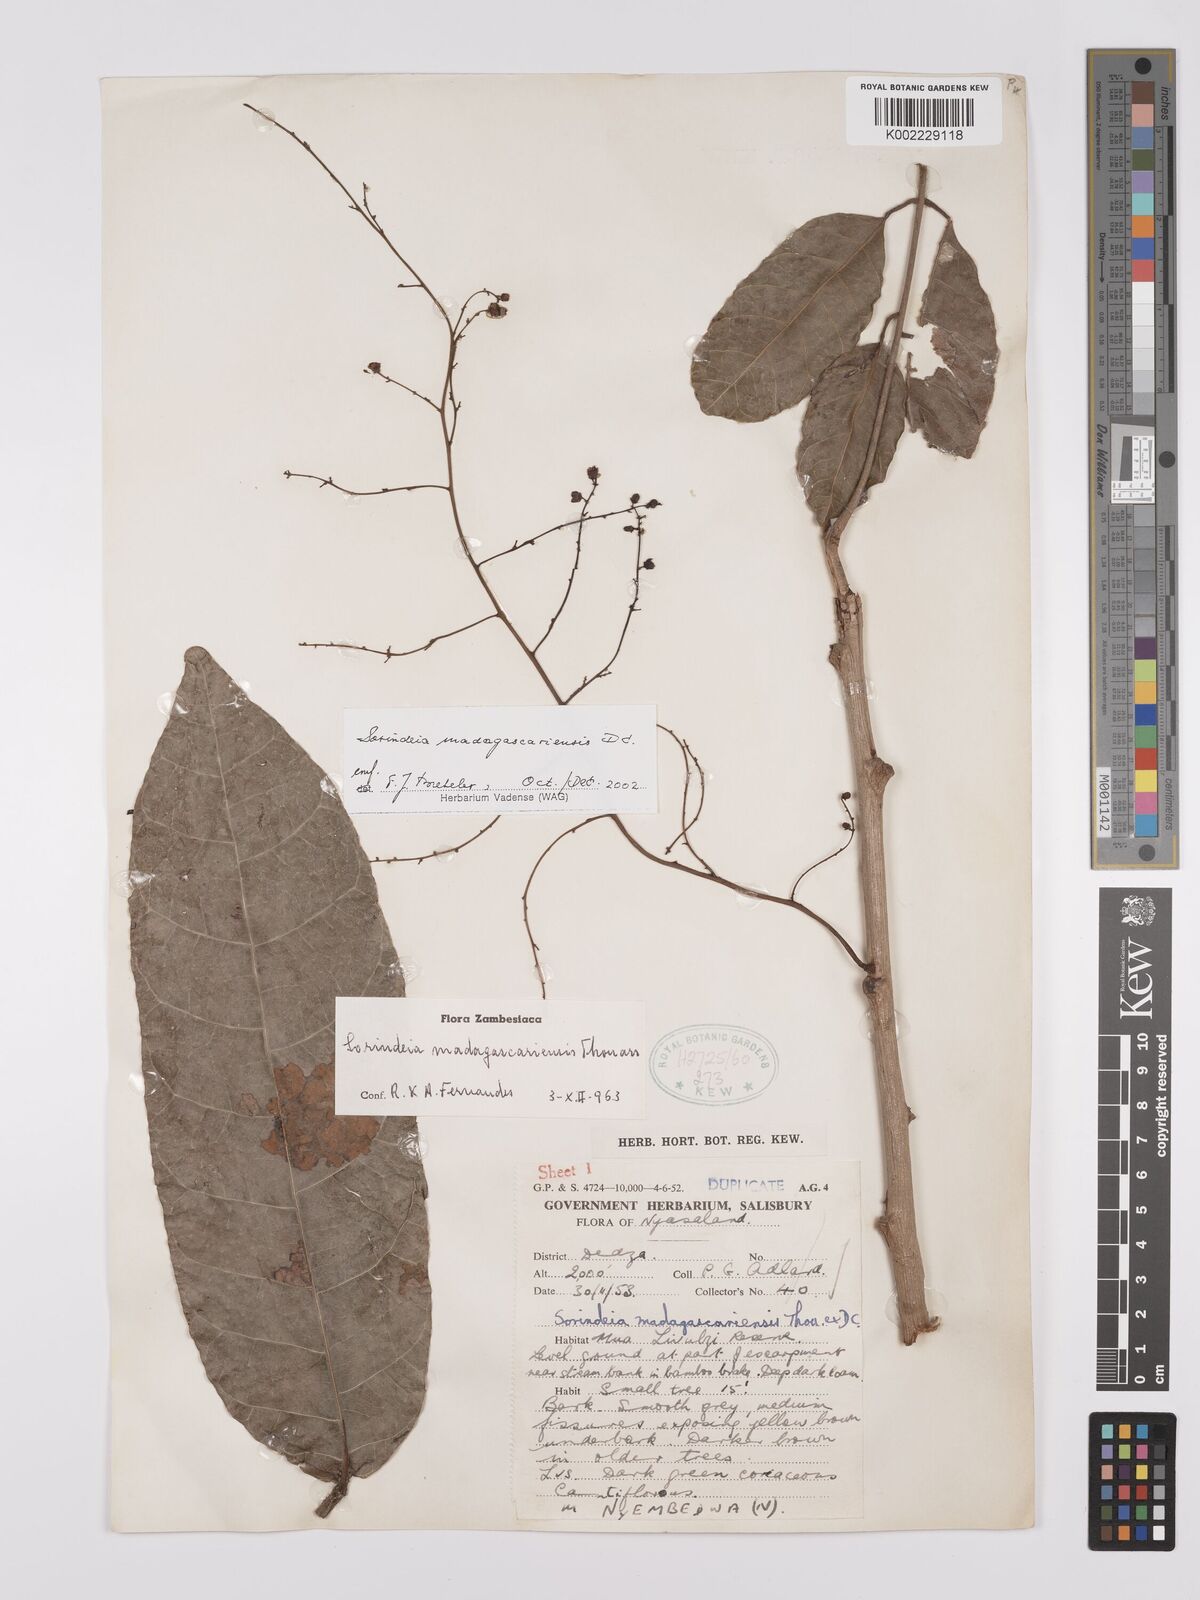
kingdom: Plantae
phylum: Tracheophyta
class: Magnoliopsida
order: Sapindales
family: Anacardiaceae
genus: Sorindeia
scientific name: Sorindeia madagascariensis
